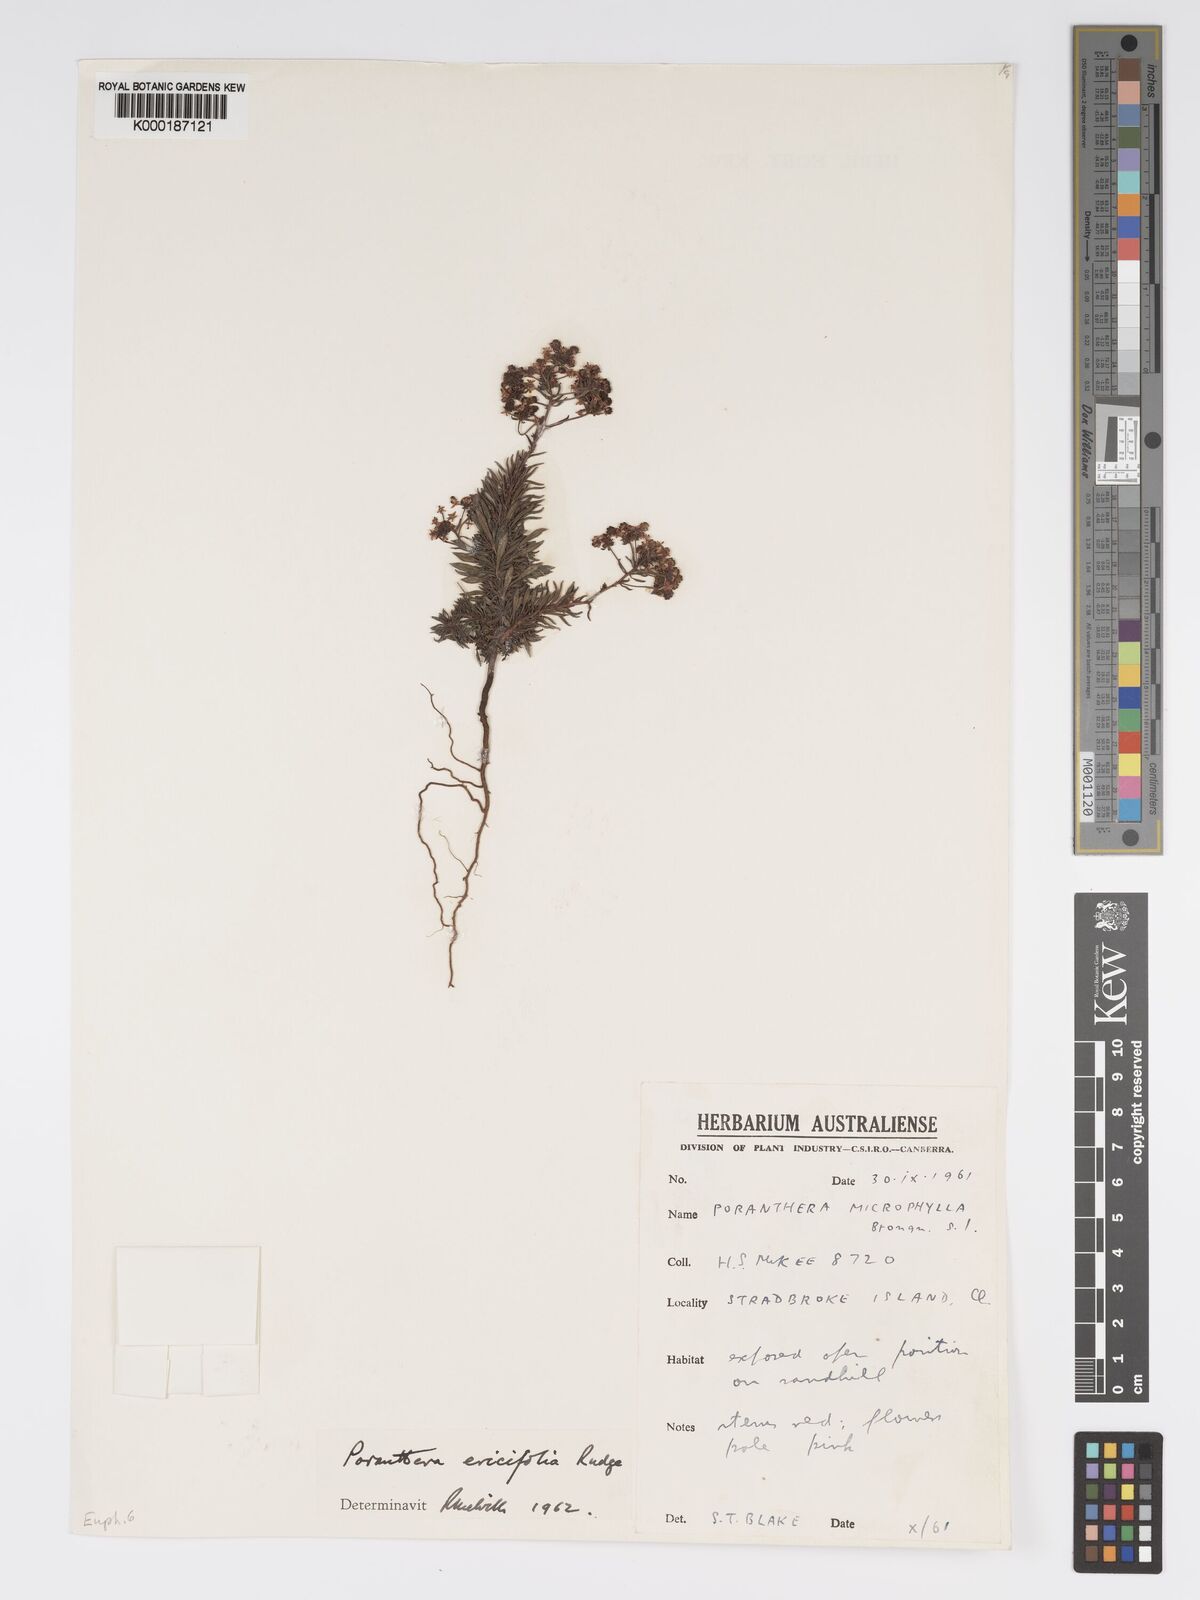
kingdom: Plantae
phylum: Tracheophyta
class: Magnoliopsida
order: Malpighiales
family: Phyllanthaceae
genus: Poranthera
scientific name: Poranthera ericifolia
